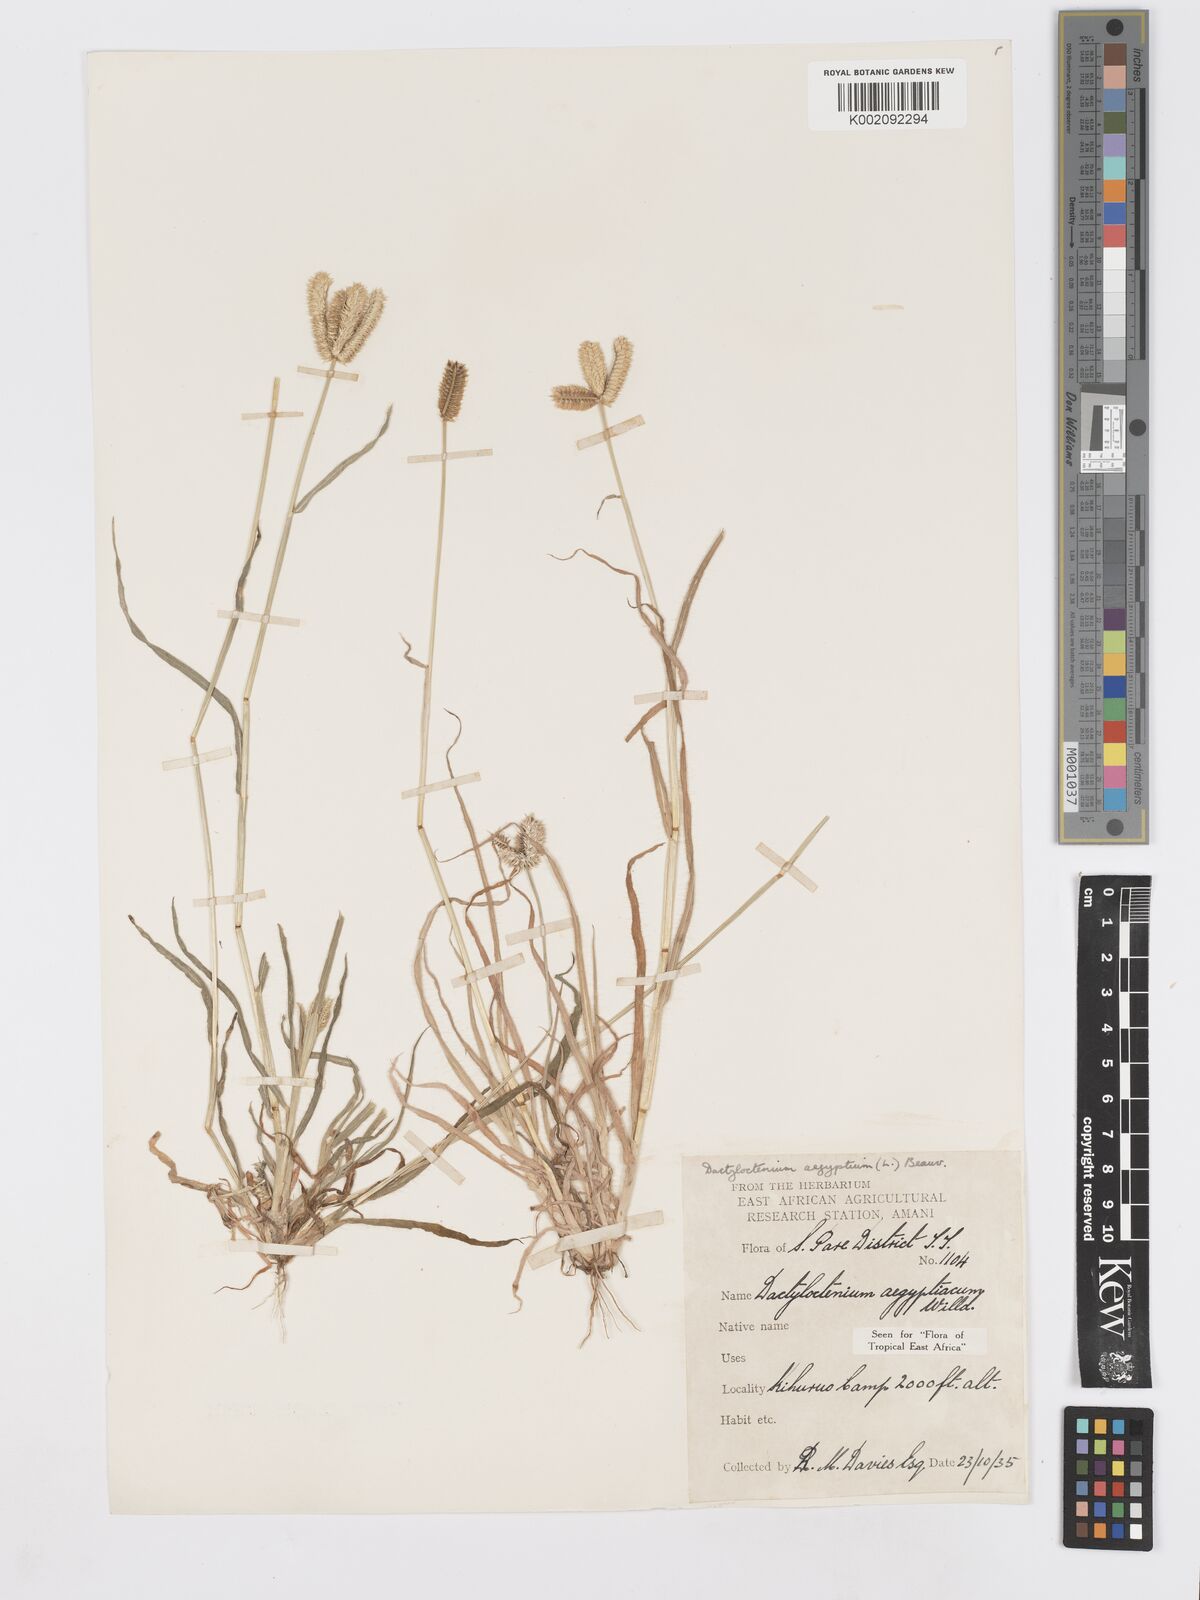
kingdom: Plantae
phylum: Tracheophyta
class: Liliopsida
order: Poales
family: Poaceae
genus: Dactyloctenium
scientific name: Dactyloctenium aegyptium
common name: Egyptian grass
